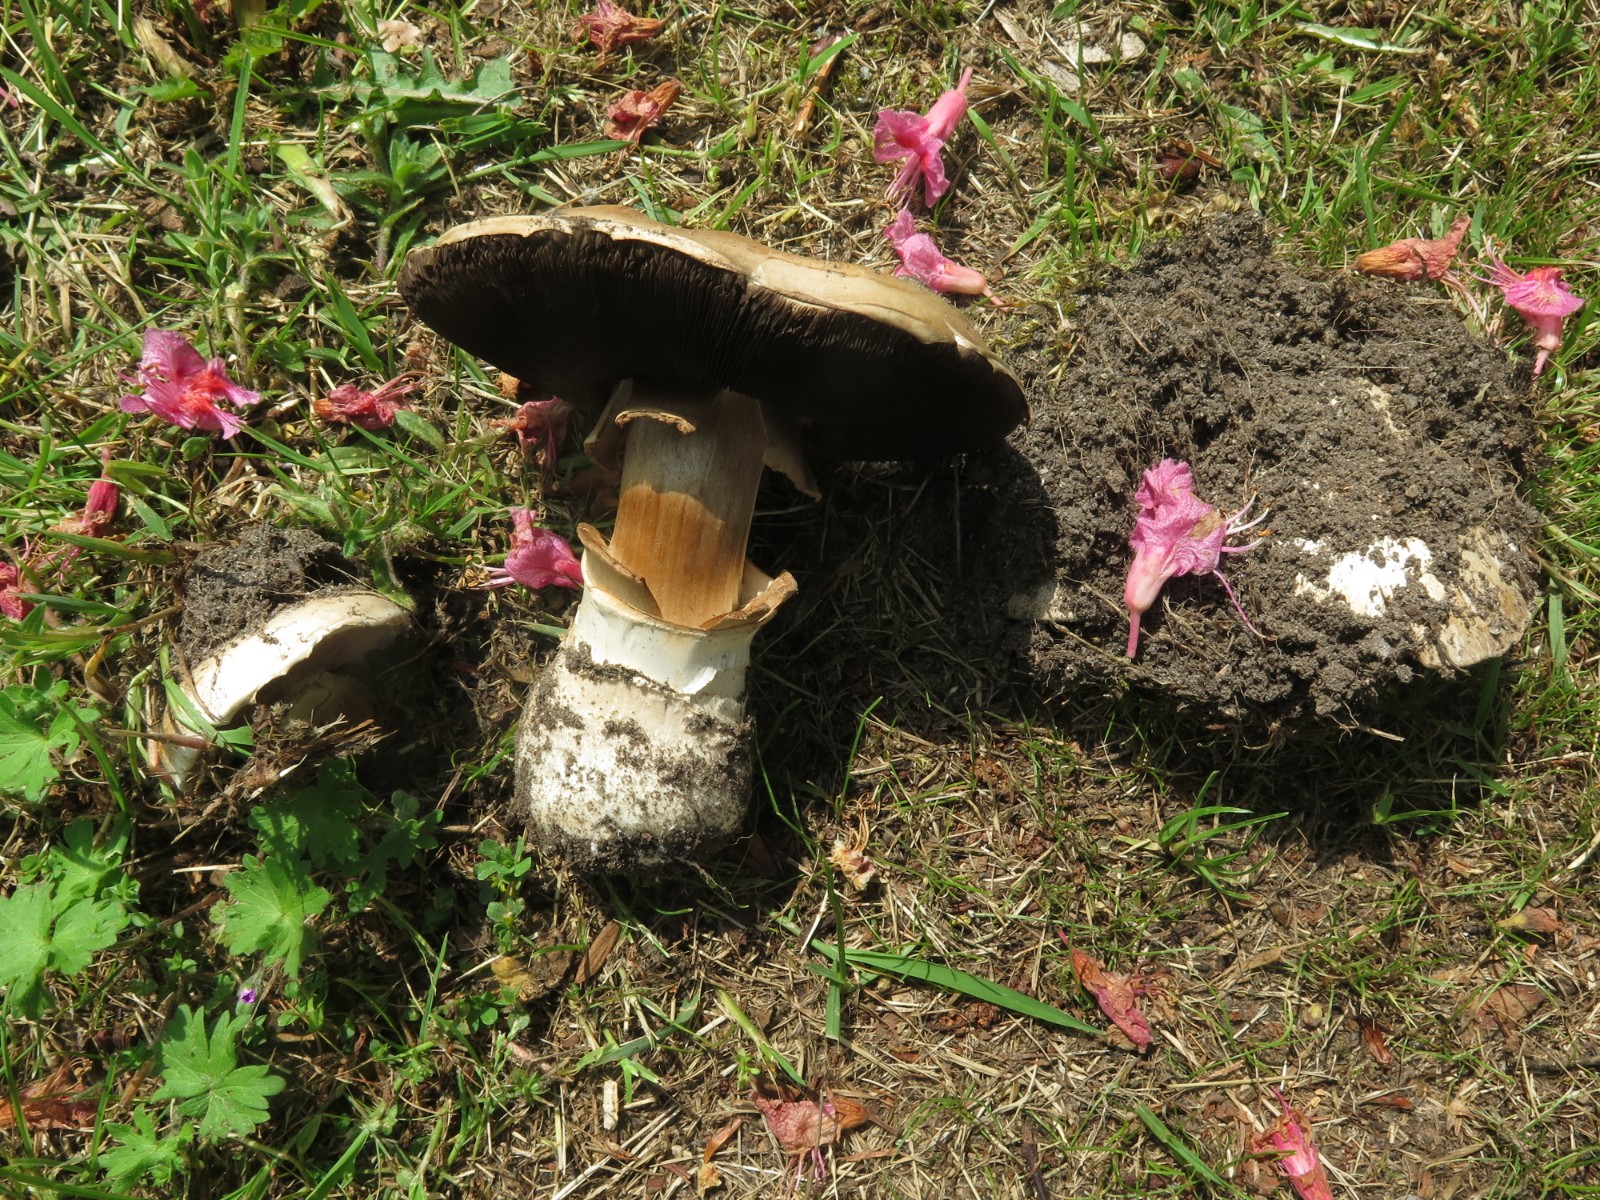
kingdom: Fungi
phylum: Basidiomycota
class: Agaricomycetes
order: Agaricales
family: Agaricaceae
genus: Agaricus
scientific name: Agaricus bitorquis
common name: vej-champignon
